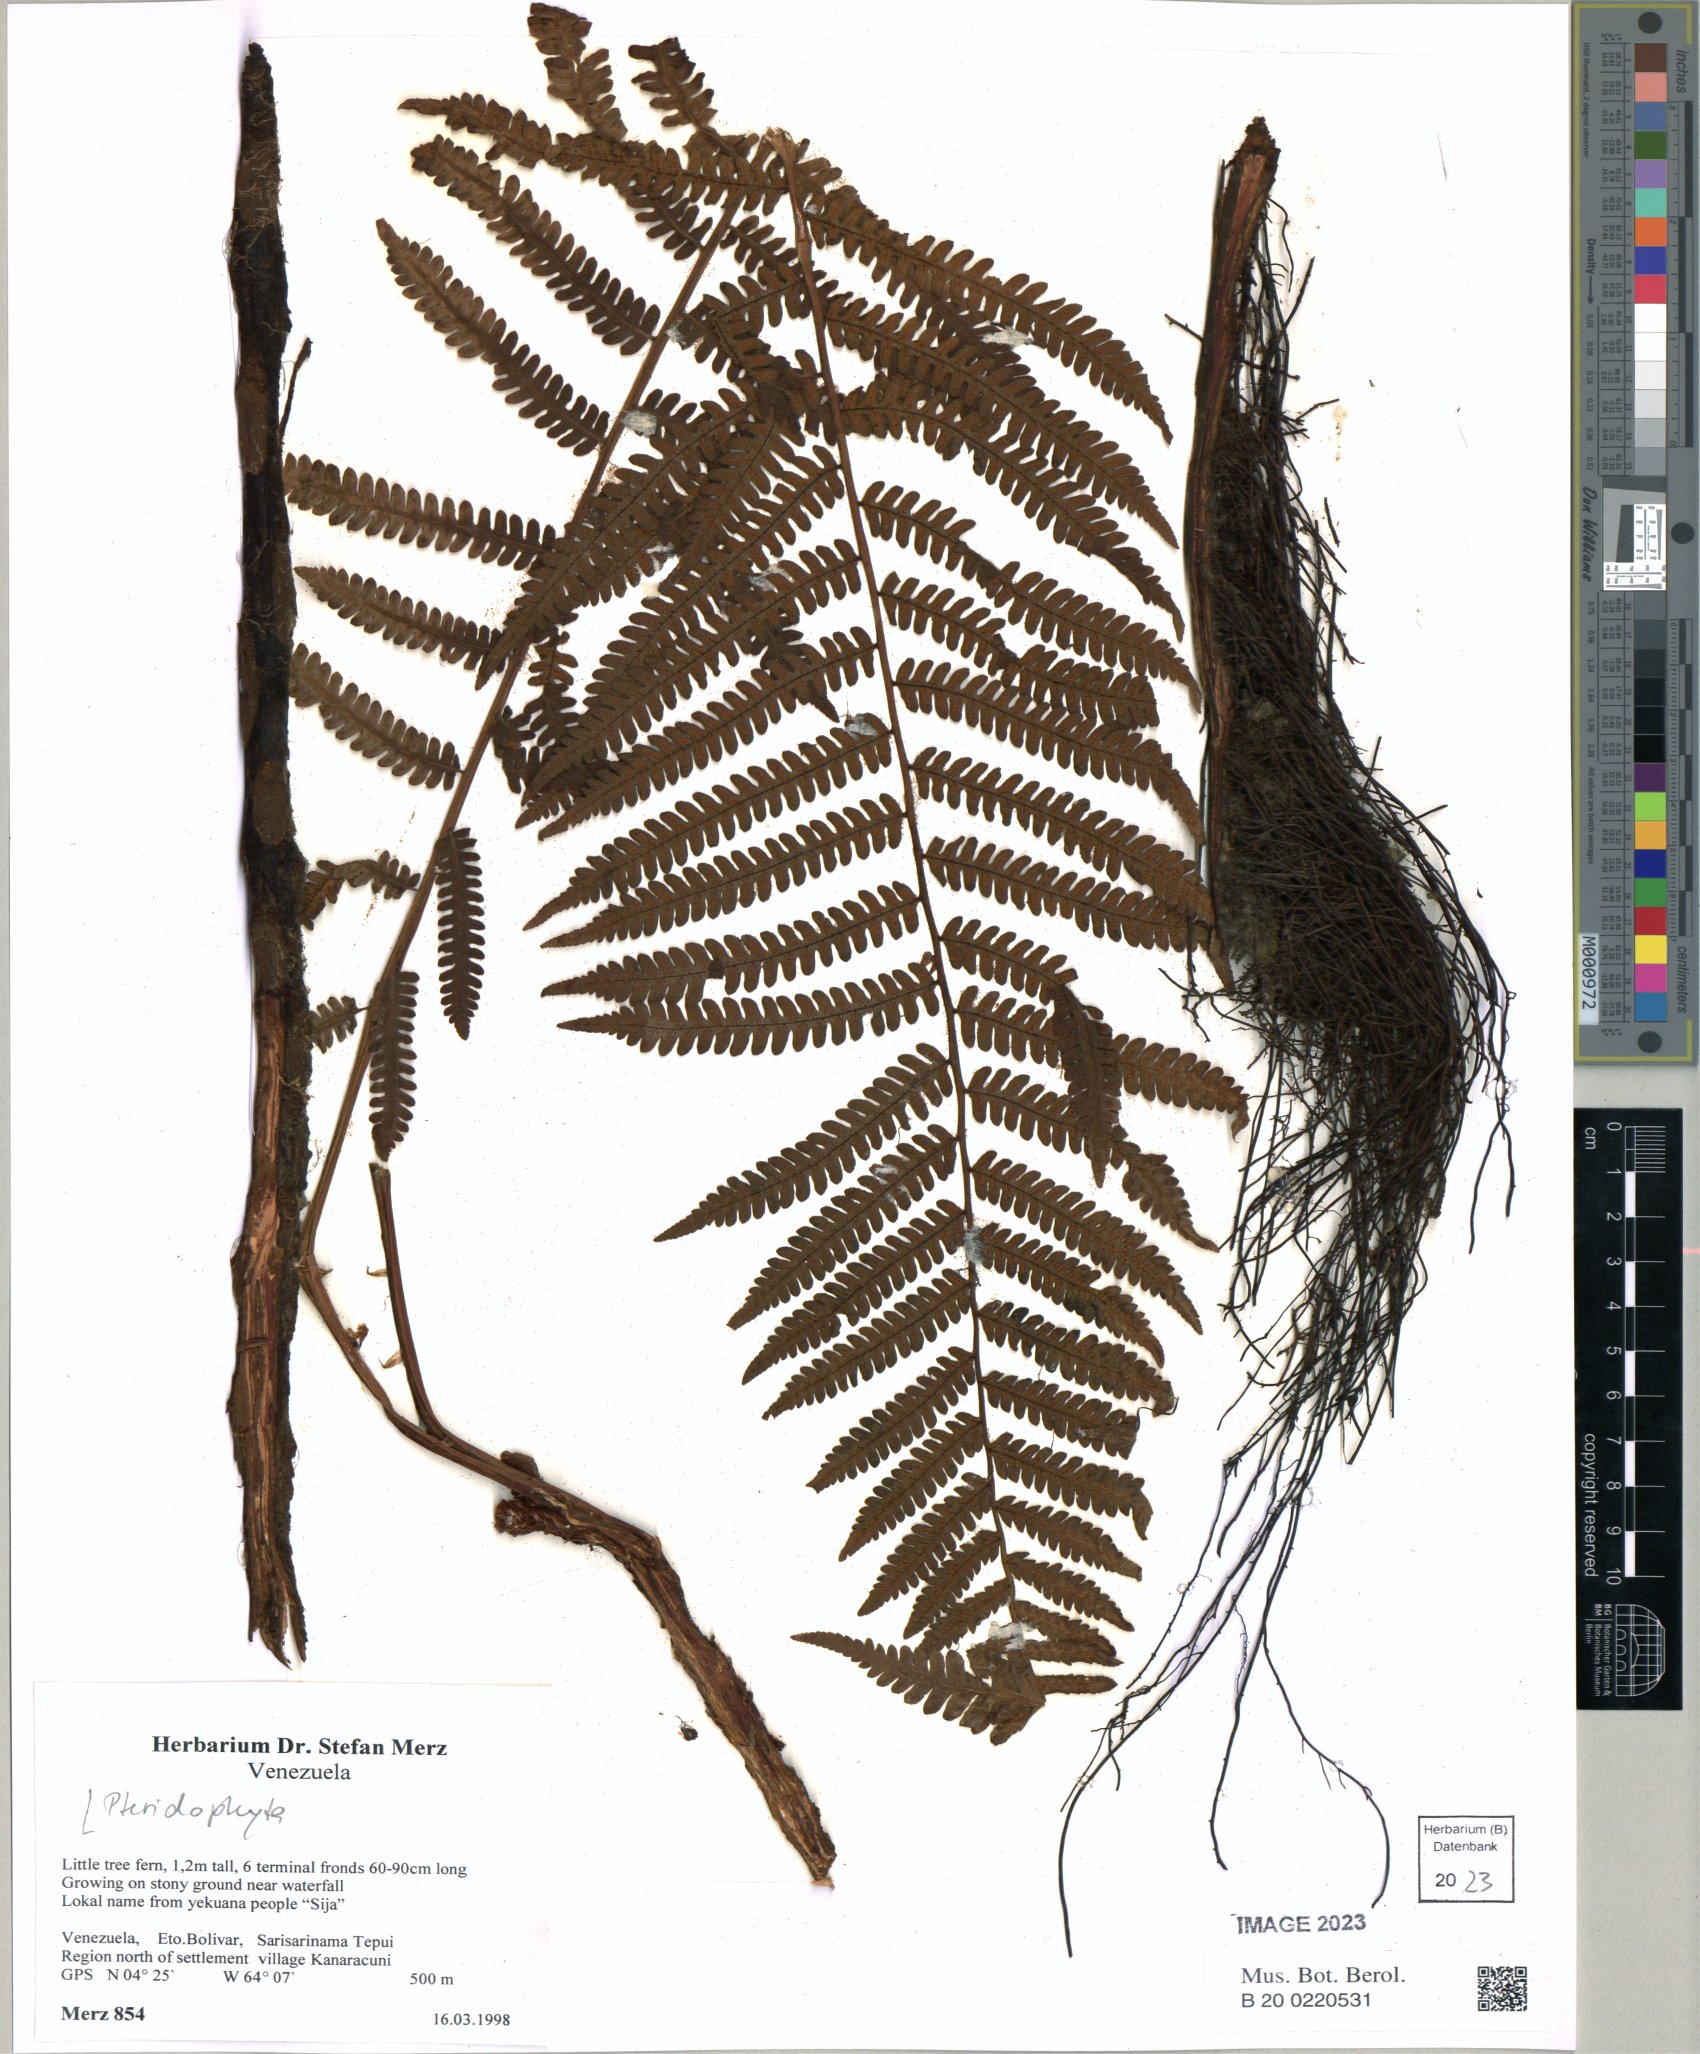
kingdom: Plantae
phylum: Tracheophyta
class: Polypodiopsida
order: Cyatheales
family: Cyatheaceae
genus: Cyathea
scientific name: Cyathea
